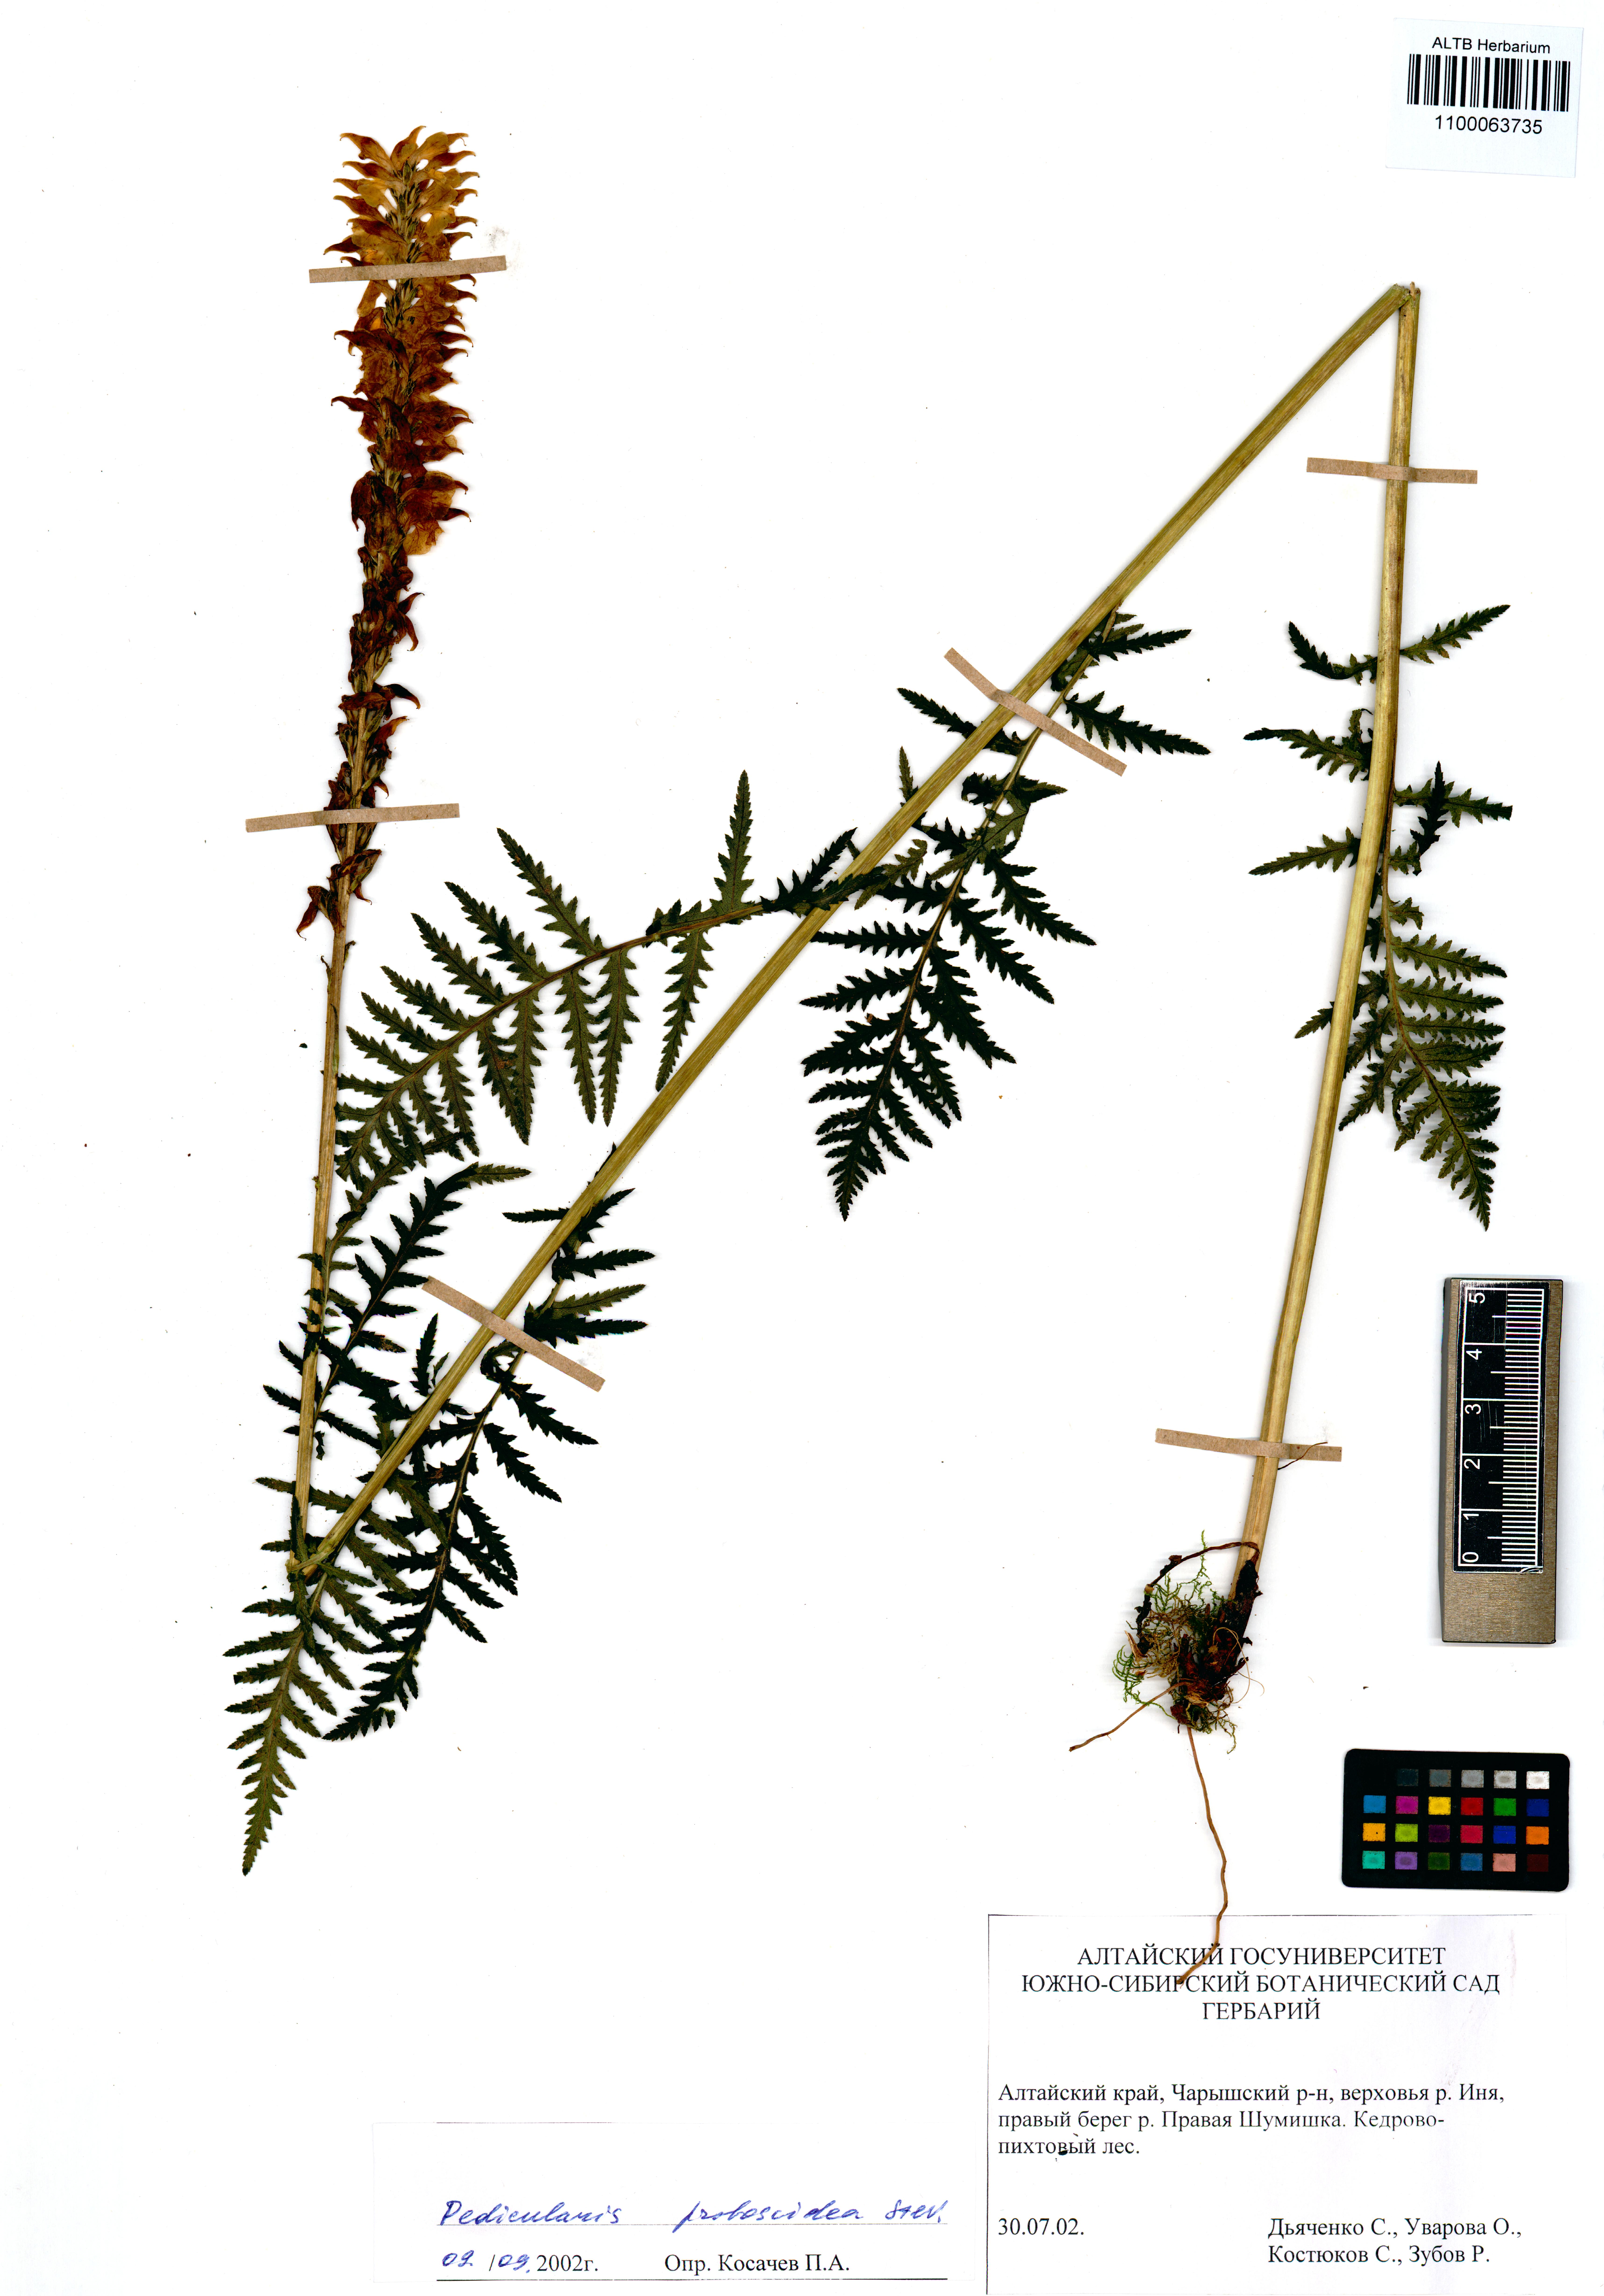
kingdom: Plantae
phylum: Tracheophyta
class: Magnoliopsida
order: Lamiales
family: Orobanchaceae
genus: Pedicularis
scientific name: Pedicularis cenisia
